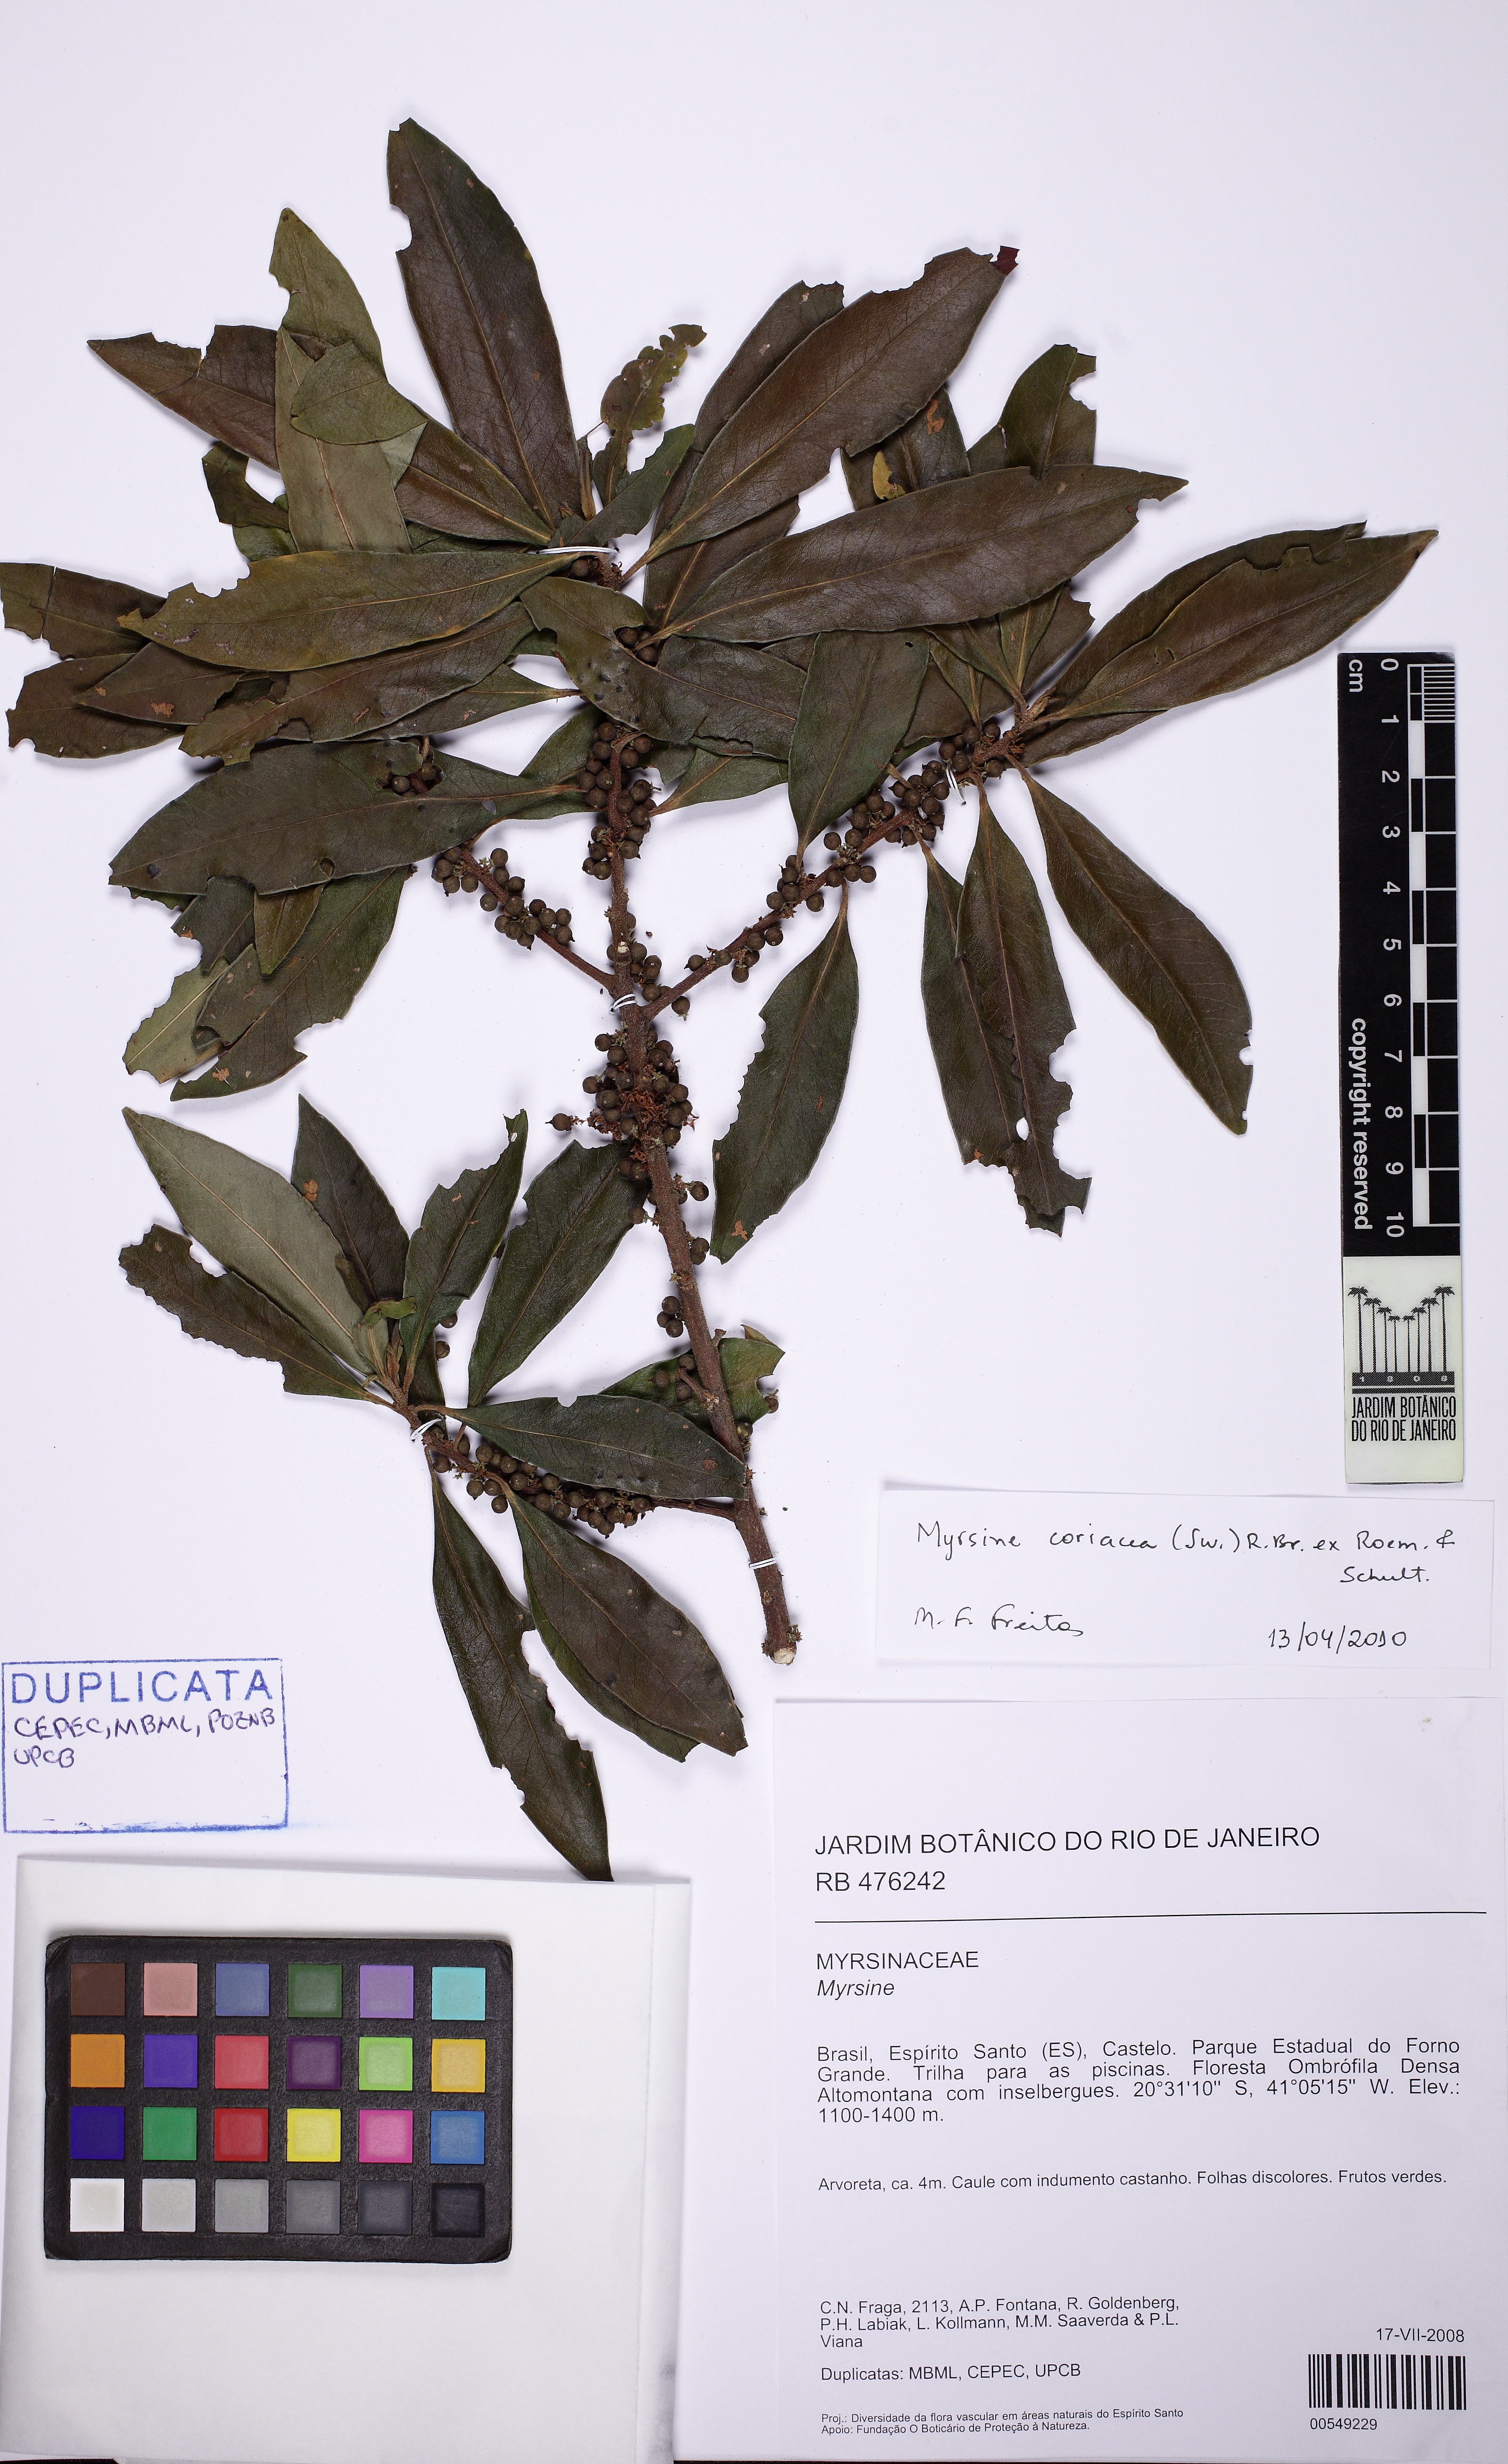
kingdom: Plantae
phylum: Tracheophyta
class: Magnoliopsida
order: Ericales
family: Primulaceae
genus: Myrsine
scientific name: Myrsine coriacea
